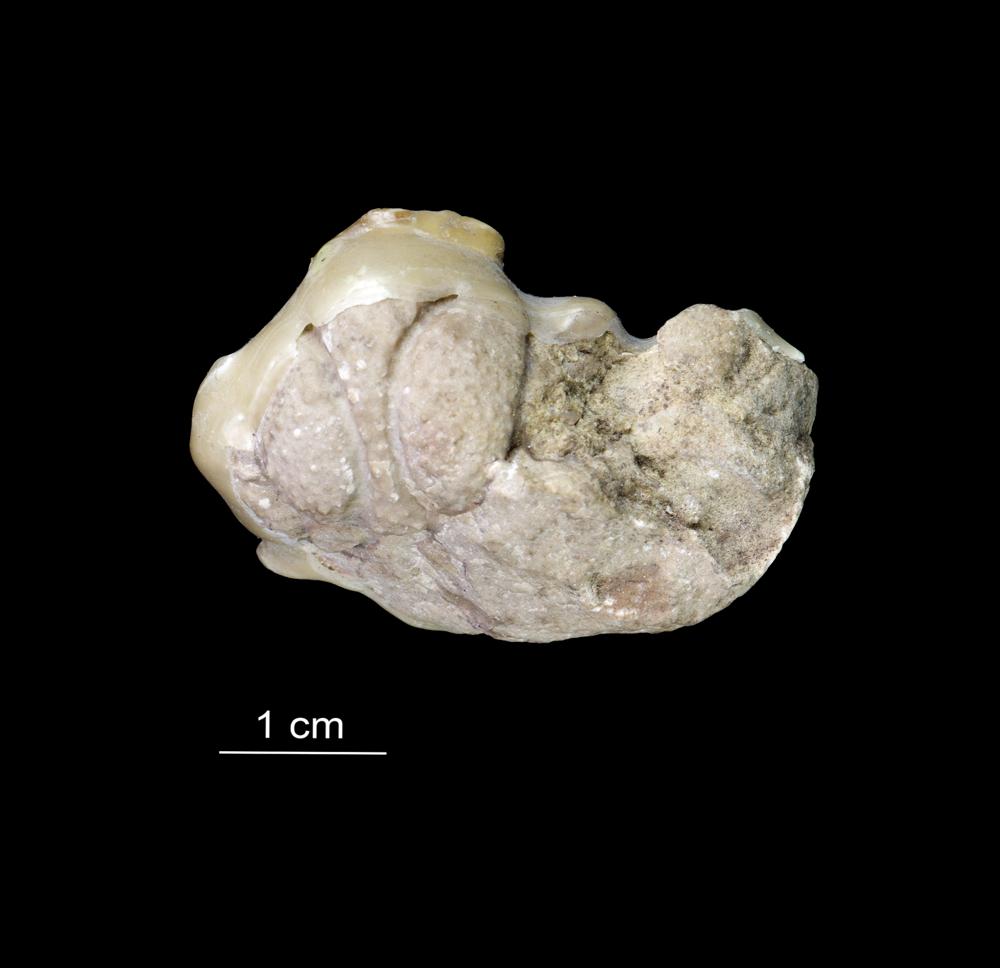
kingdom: Animalia
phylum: Arthropoda
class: Trilobita
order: Lichida
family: Lichidae
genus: Hoplolichoides
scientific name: Hoplolichoides conicotuberculatus
